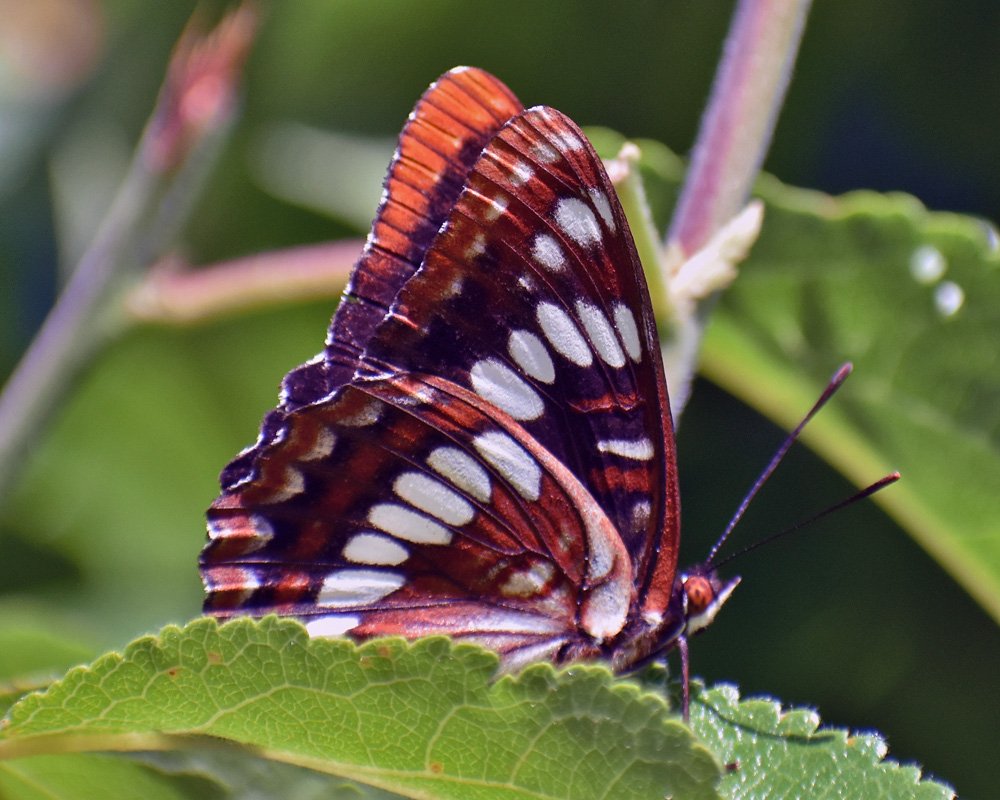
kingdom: Animalia
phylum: Arthropoda
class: Insecta
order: Lepidoptera
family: Nymphalidae
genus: Limenitis
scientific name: Limenitis lorquini
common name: Lorquin's Admiral
